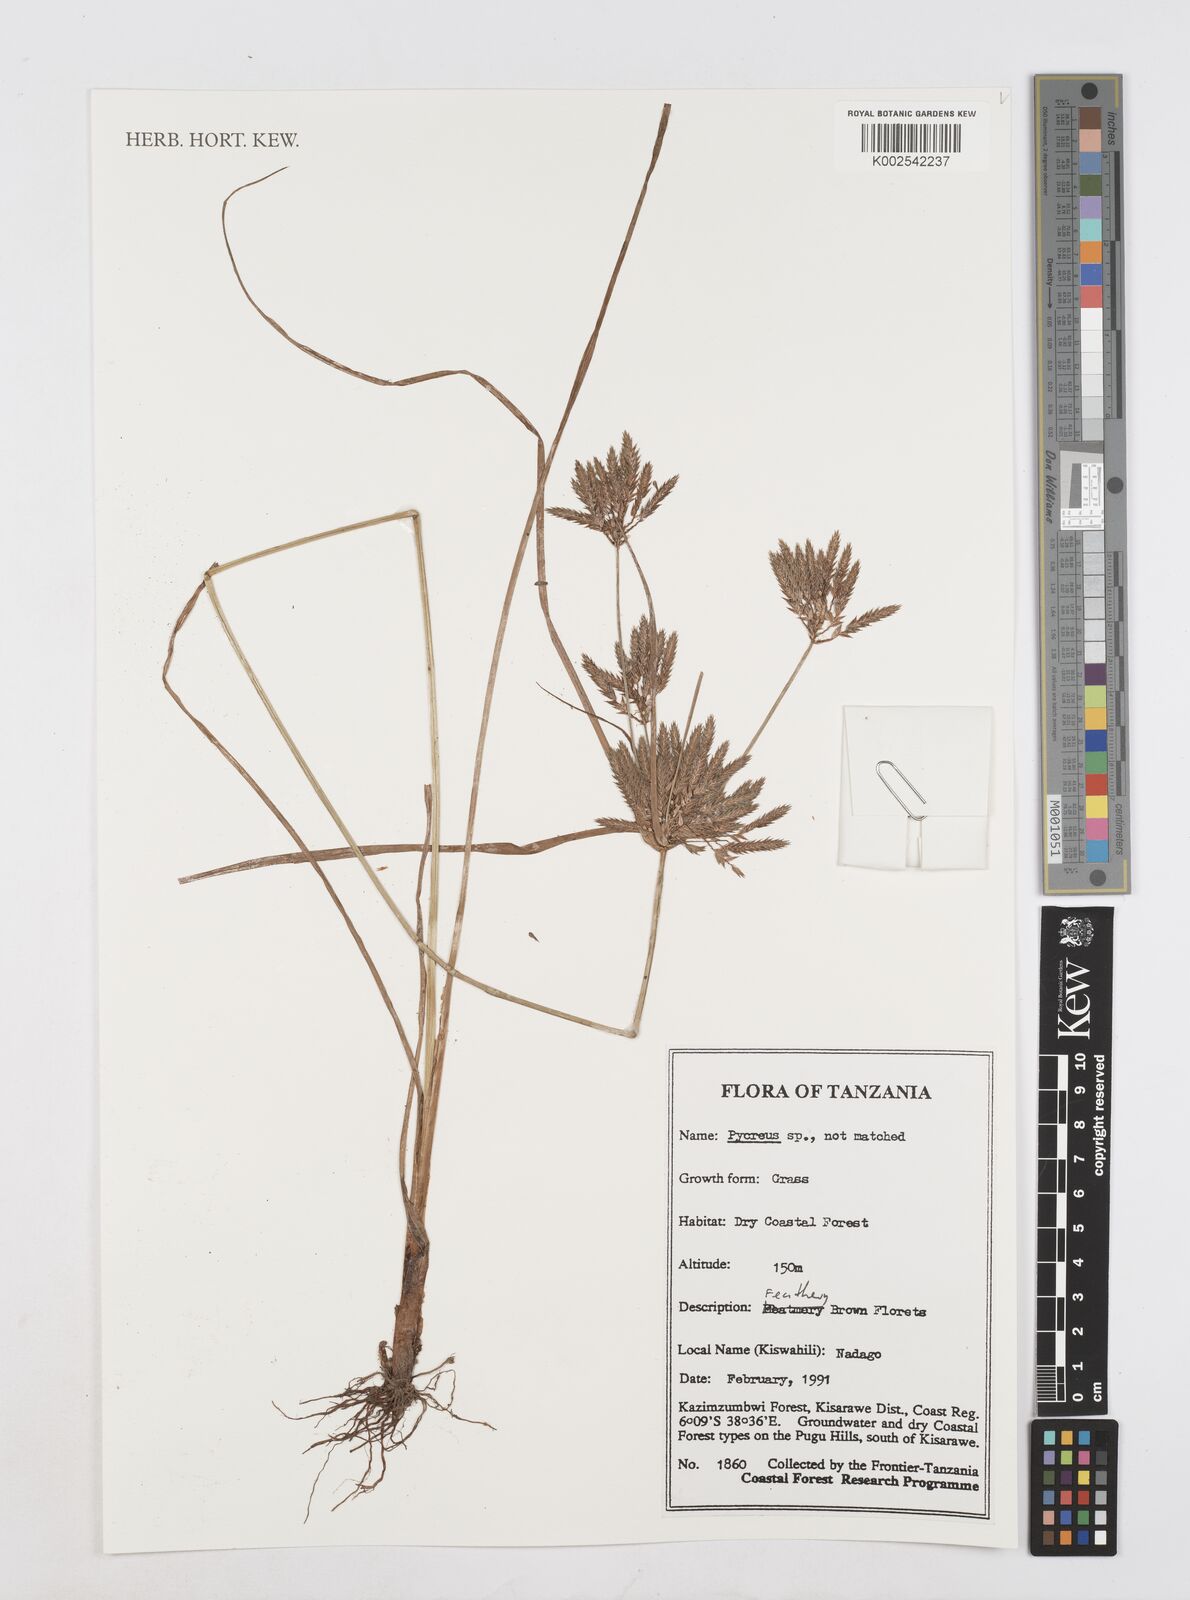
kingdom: Plantae
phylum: Tracheophyta
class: Liliopsida
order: Poales
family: Cyperaceae
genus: Cyperus
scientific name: Cyperus
